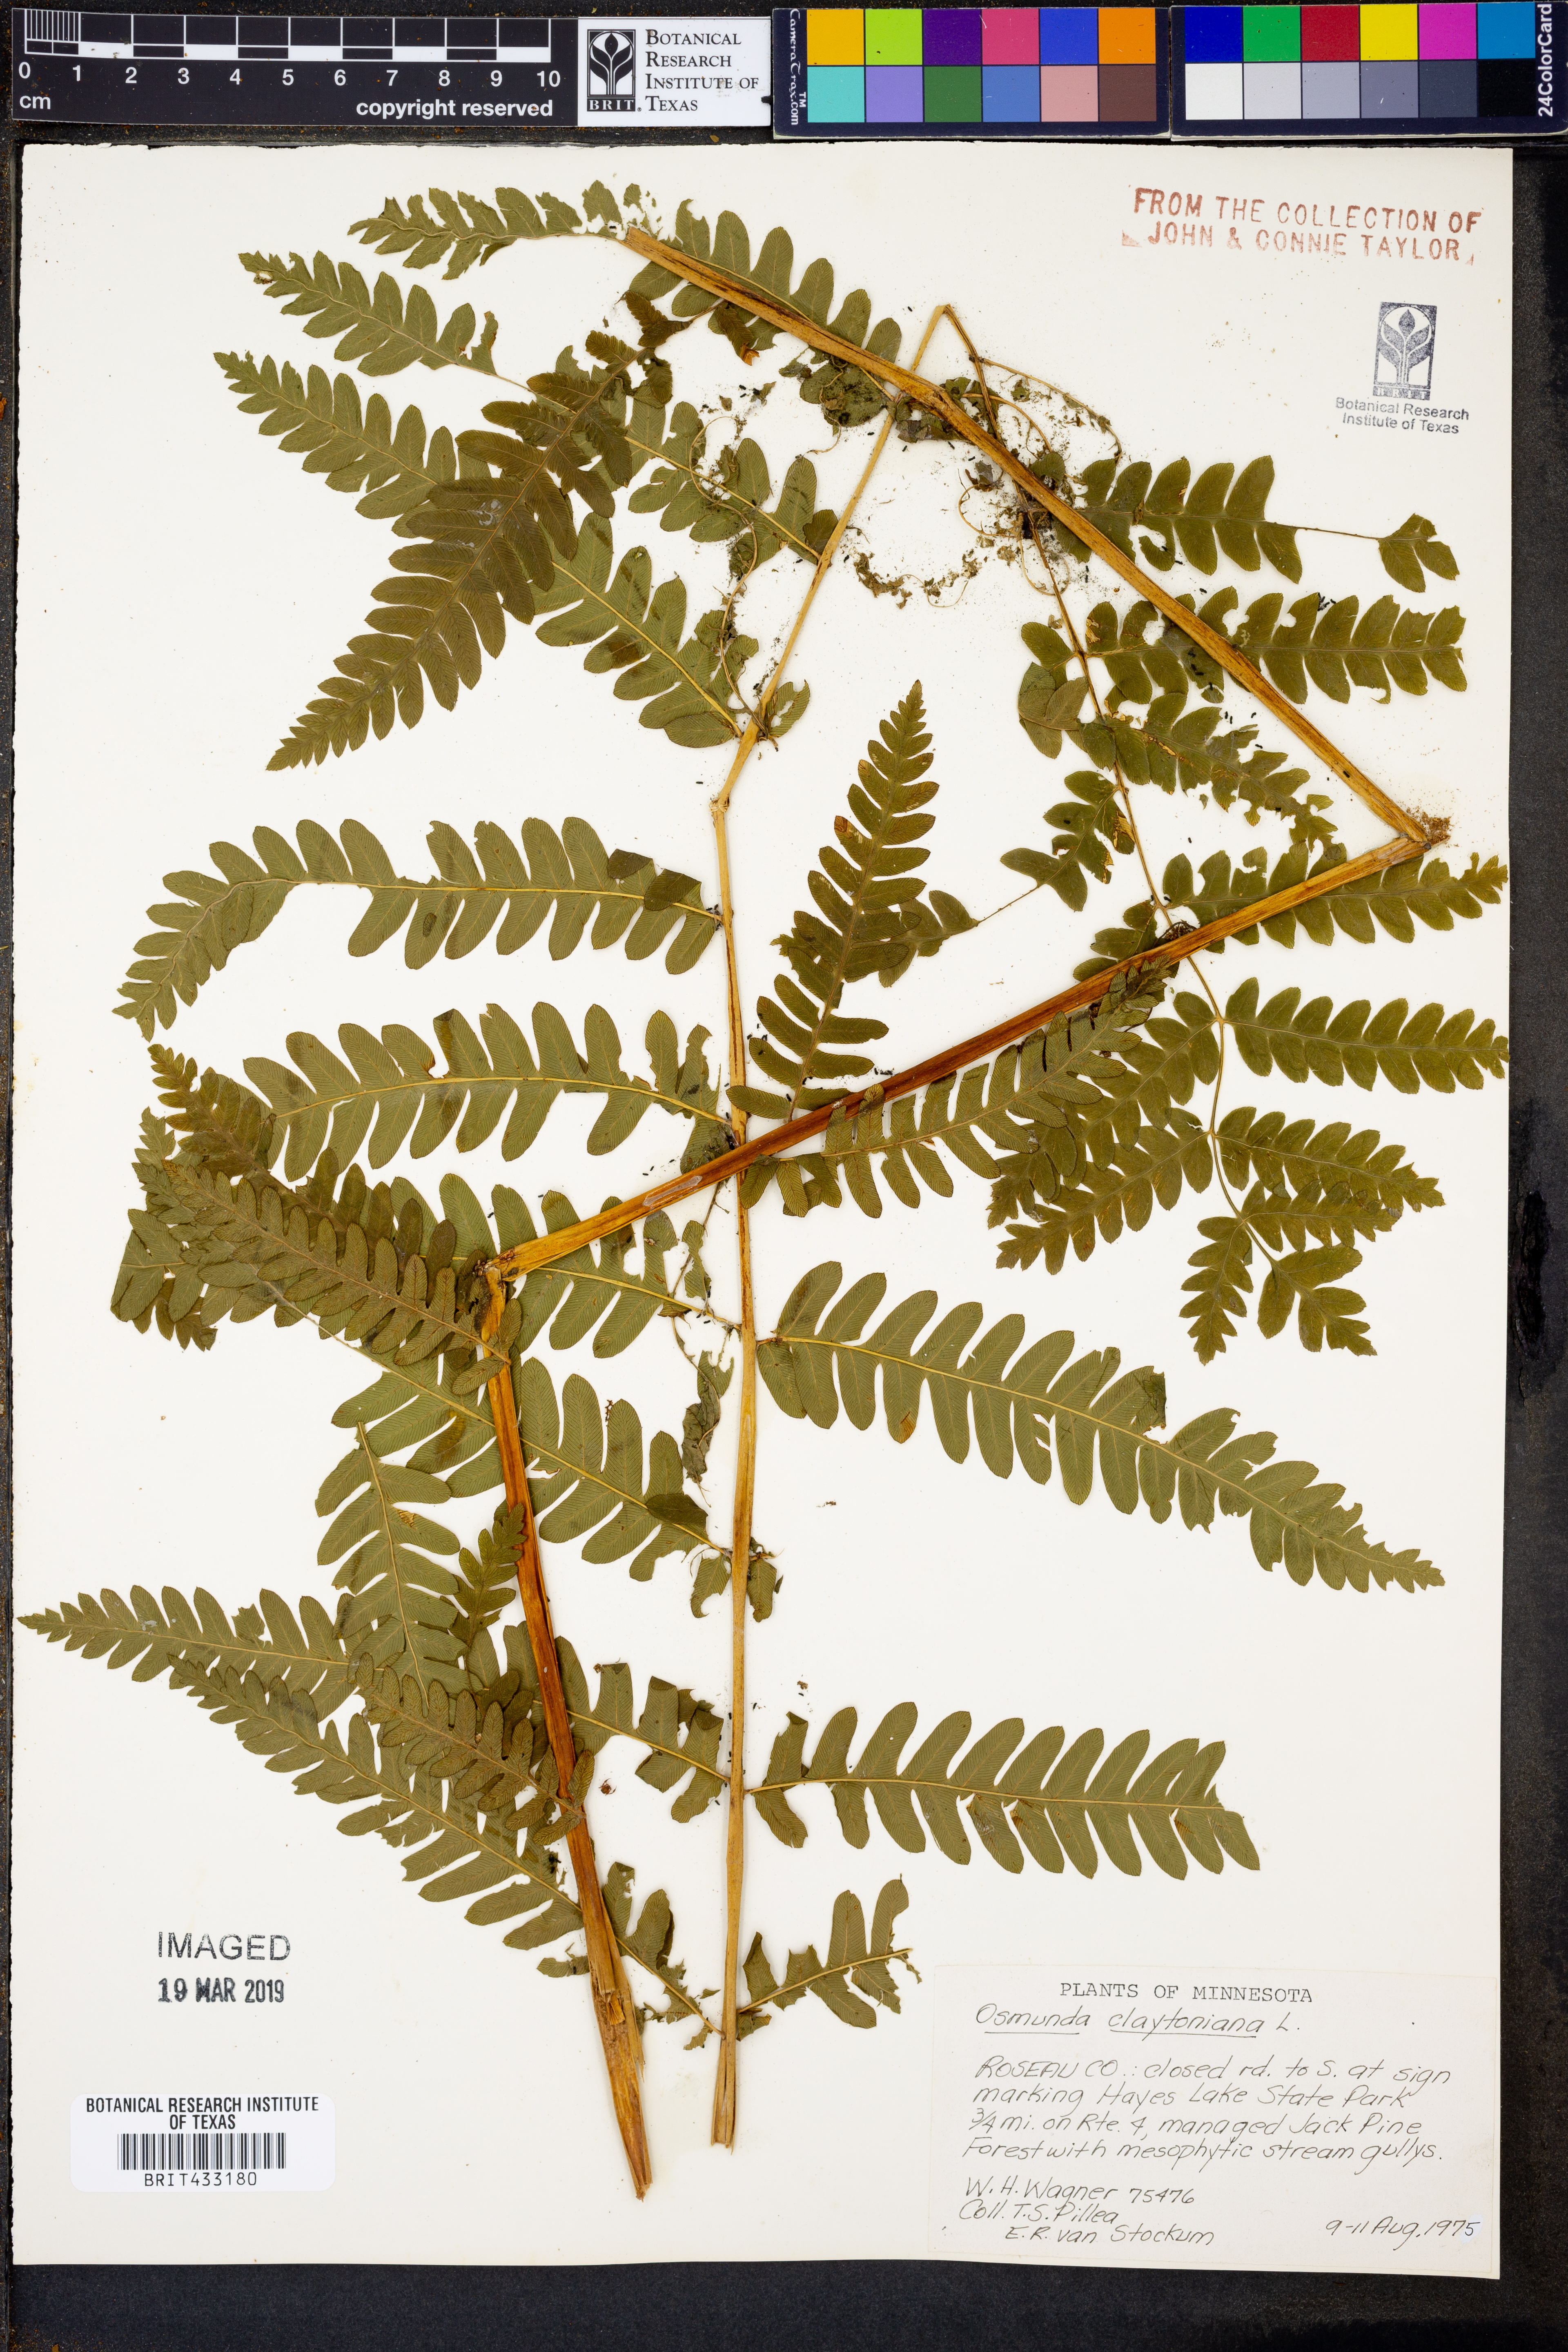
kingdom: Plantae
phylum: Tracheophyta
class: Polypodiopsida
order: Osmundales
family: Osmundaceae
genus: Claytosmunda
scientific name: Claytosmunda claytoniana
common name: Clayton's fern
